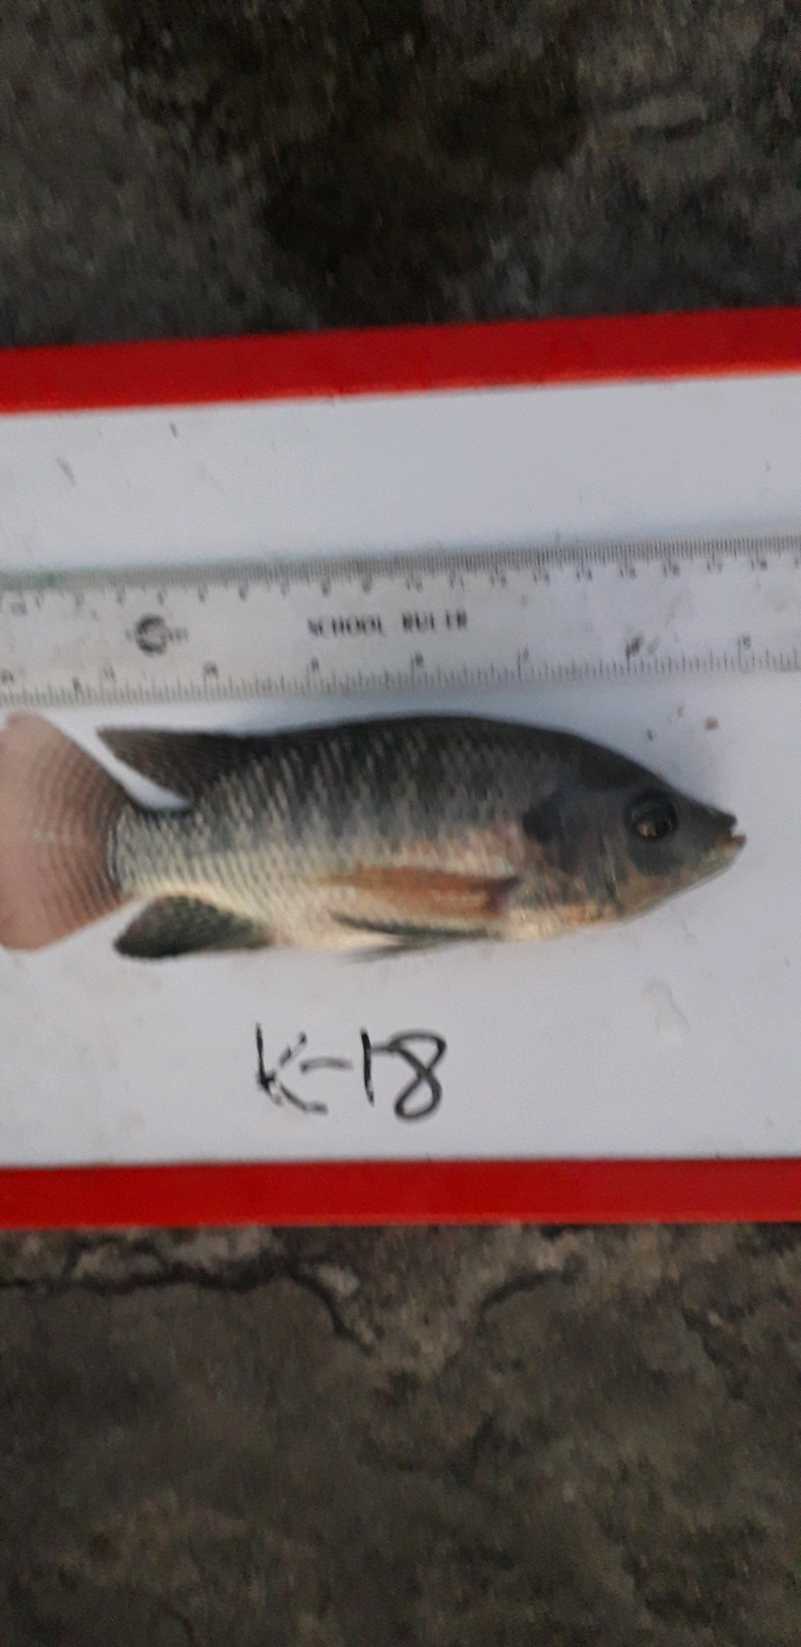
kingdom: Animalia
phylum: Chordata
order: Perciformes
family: Cichlidae
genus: Oreochromis
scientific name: Oreochromis niloticus
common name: Nile tilapia
